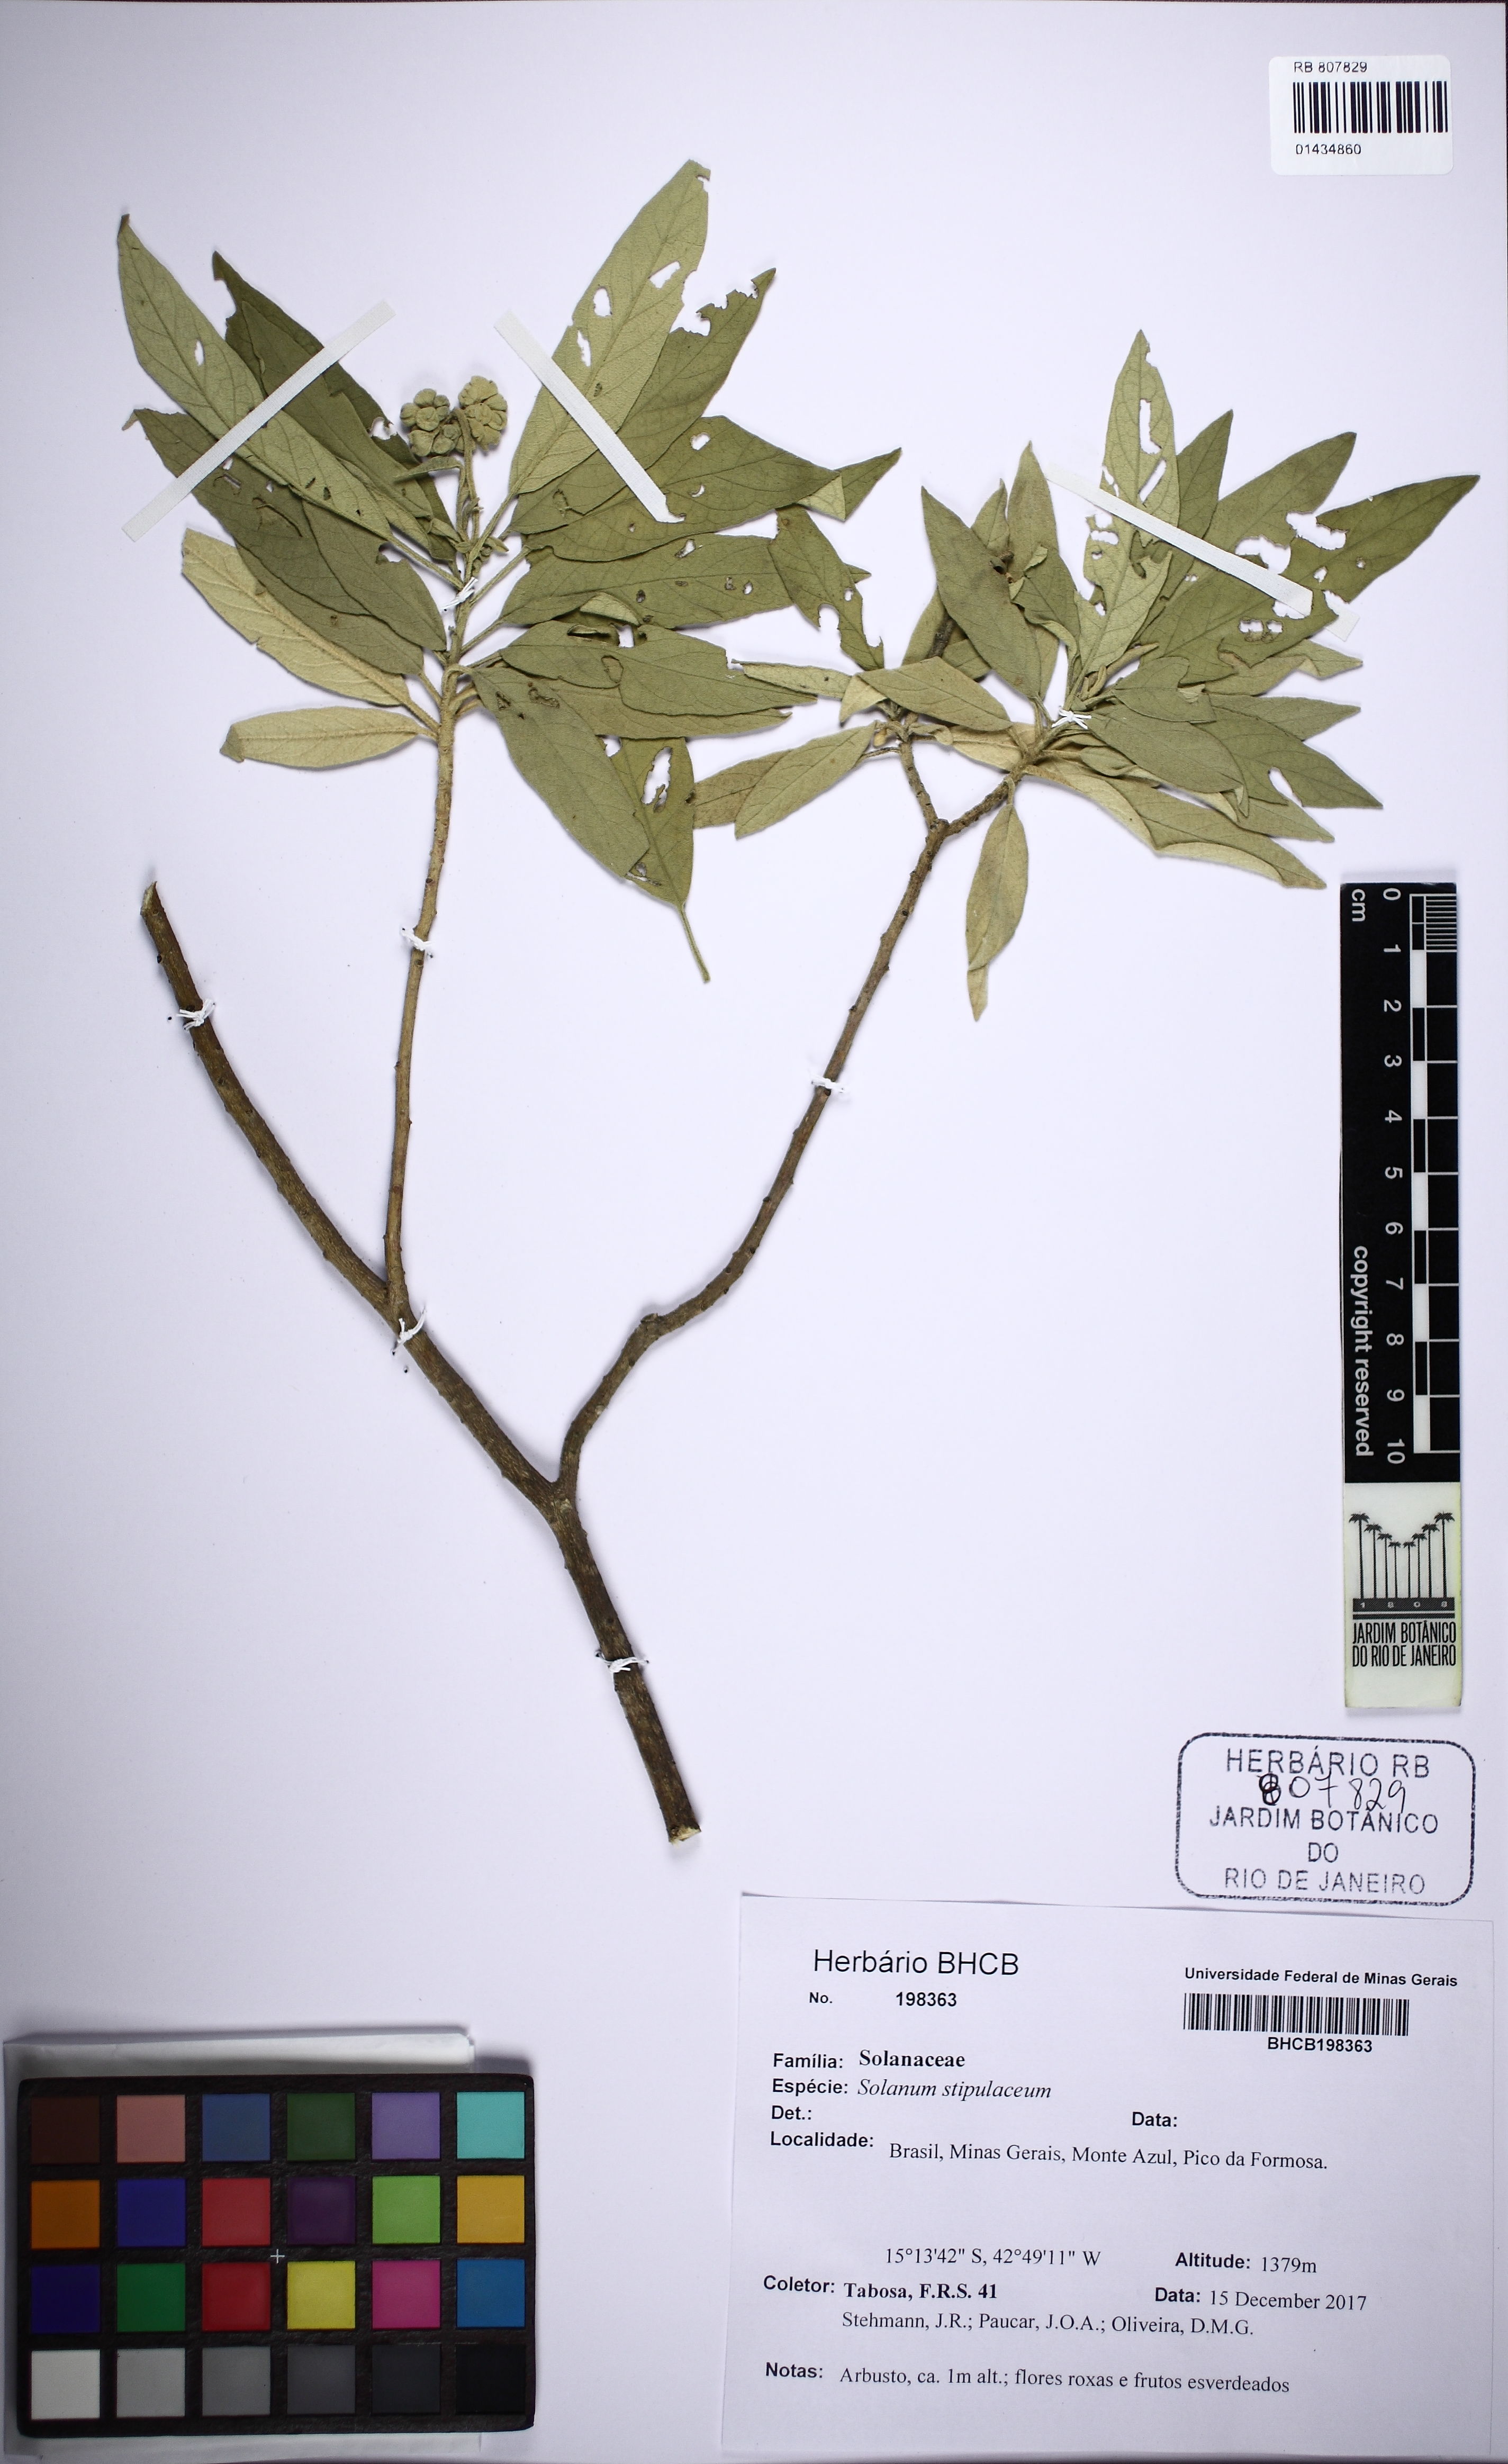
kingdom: Plantae
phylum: Tracheophyta
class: Magnoliopsida
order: Solanales
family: Solanaceae
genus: Solanum
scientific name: Solanum stipulaceum
